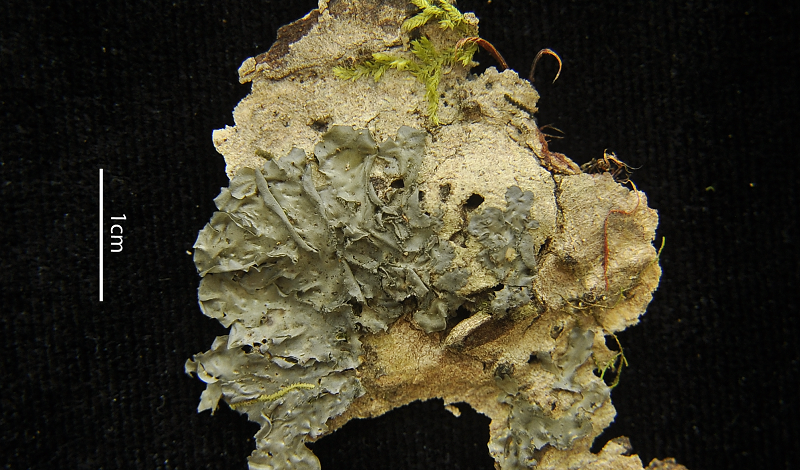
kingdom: Fungi
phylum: Ascomycota
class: Lecanoromycetes
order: Pertusariales
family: Pertusariaceae
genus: Porina
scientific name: Porina tetracerae
